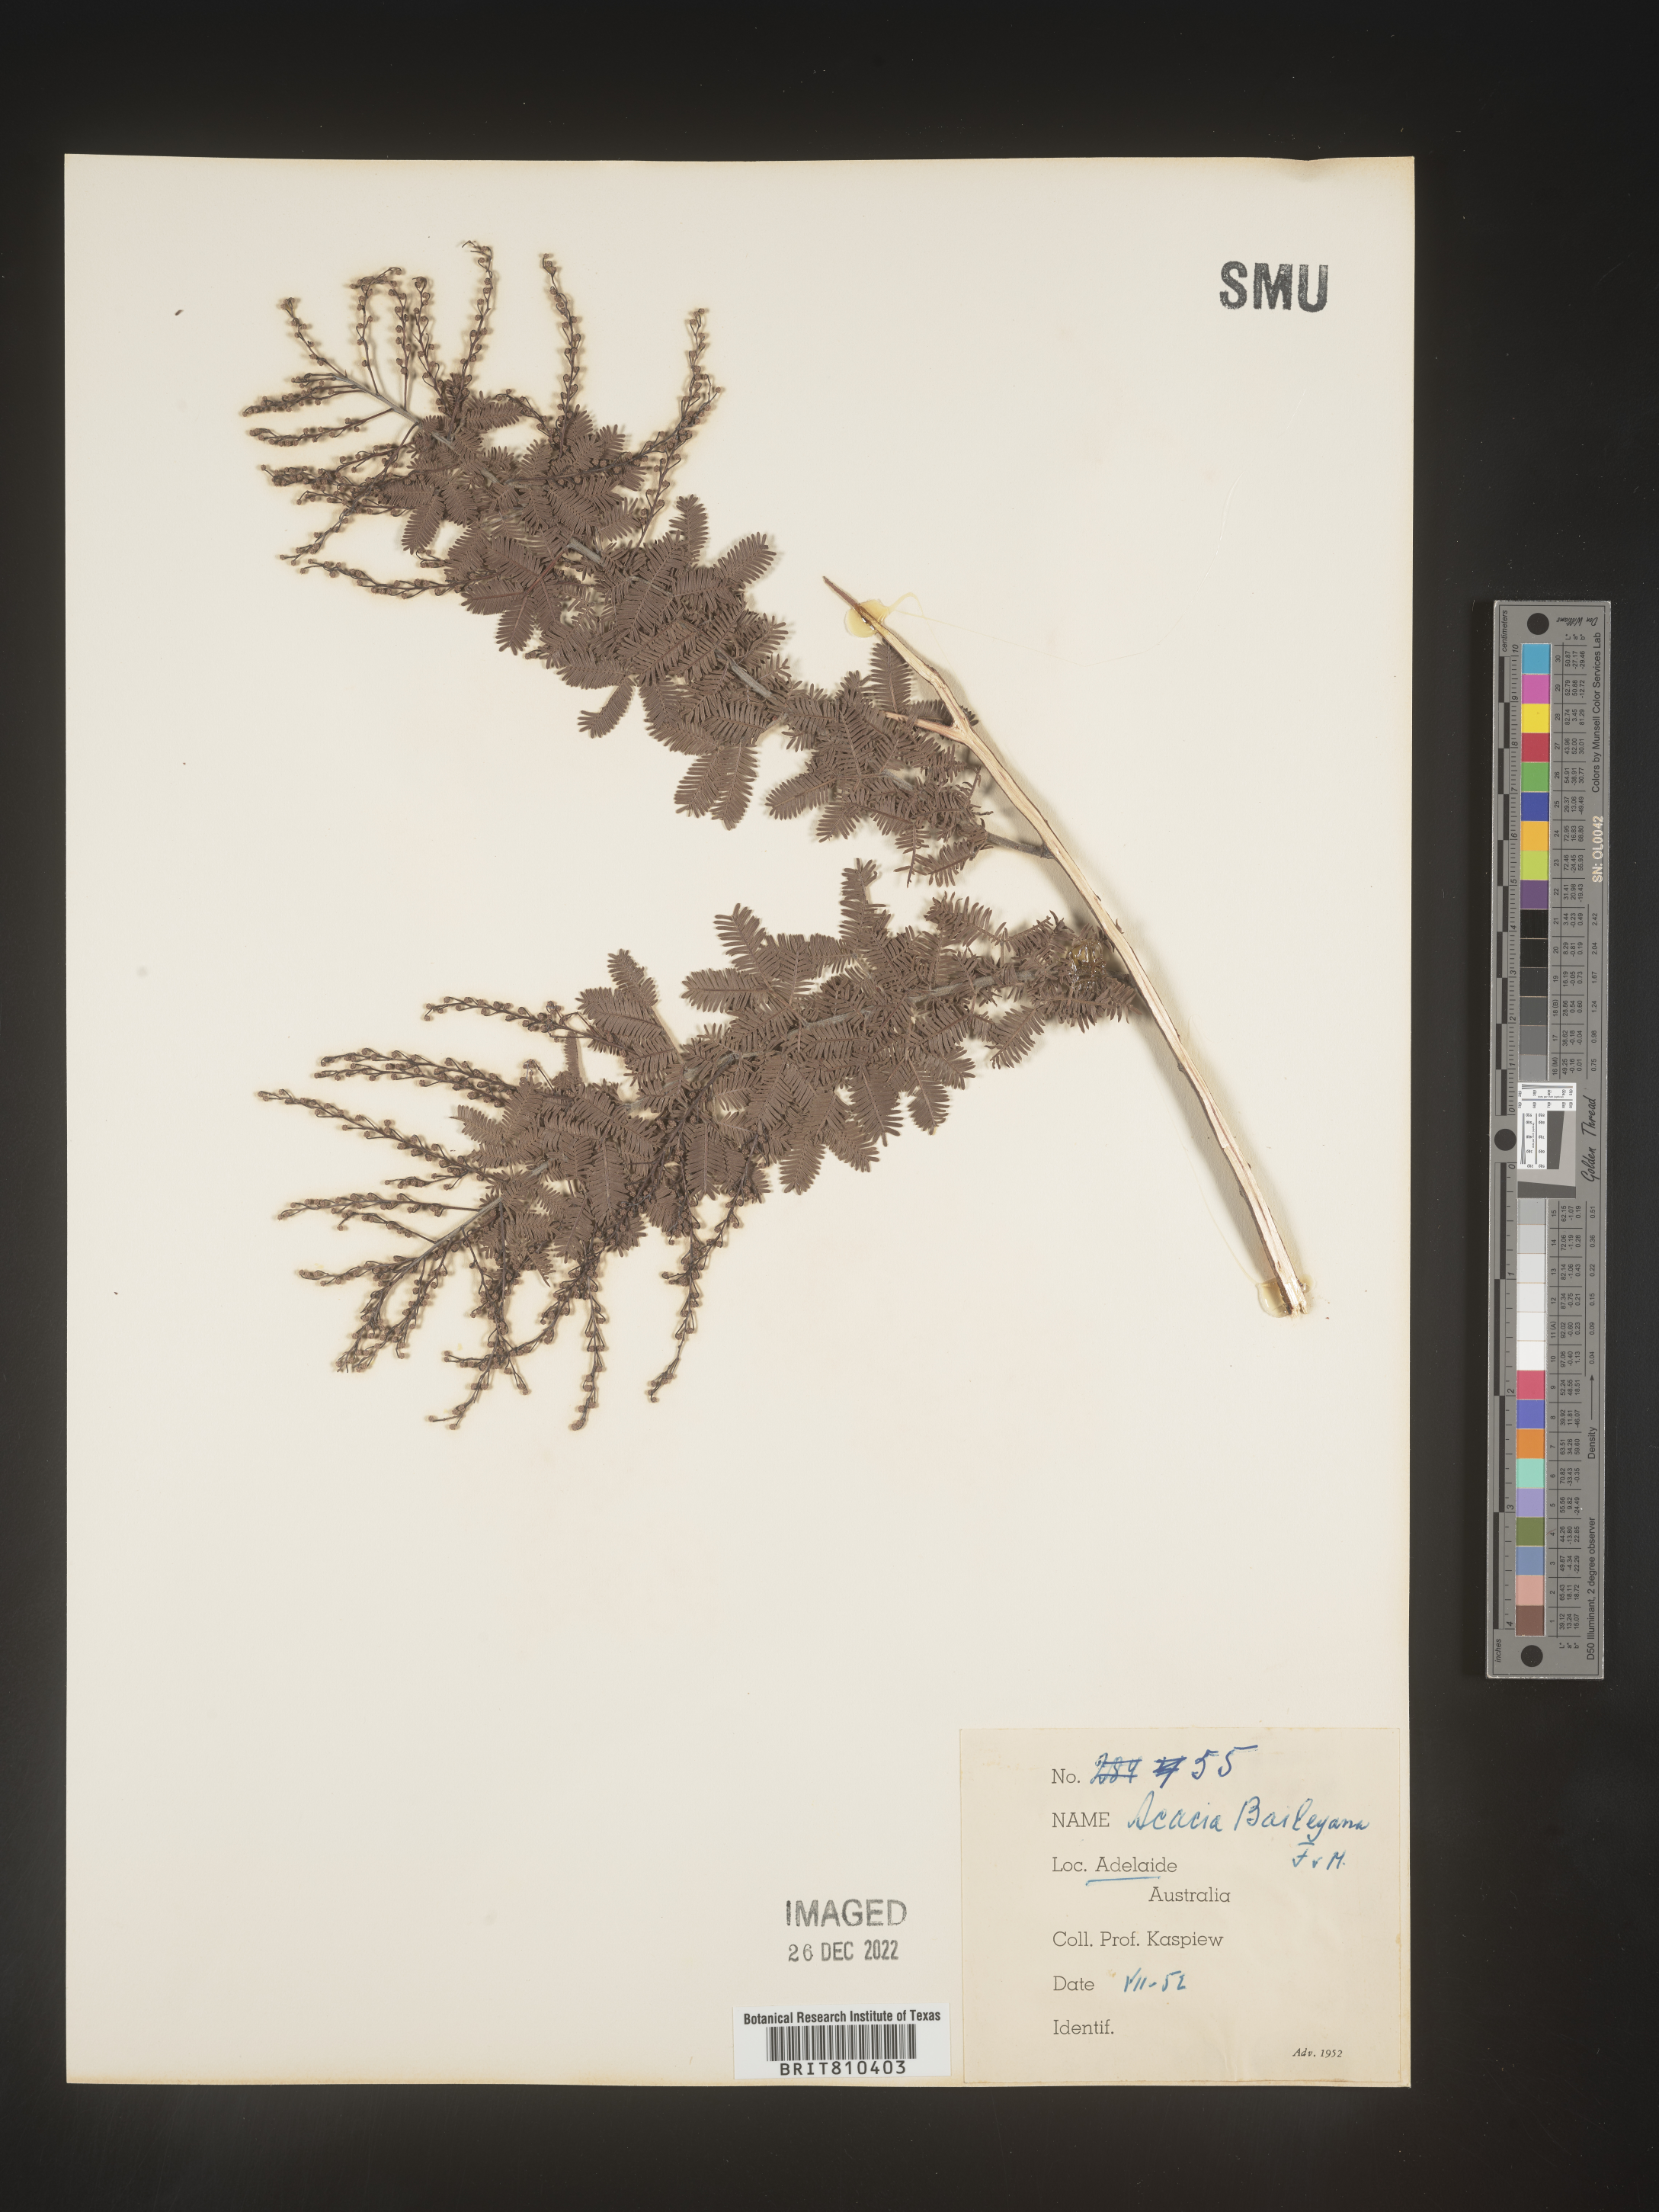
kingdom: Plantae
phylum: Tracheophyta
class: Magnoliopsida
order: Fabales
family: Fabaceae
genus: Acacia
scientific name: Acacia
